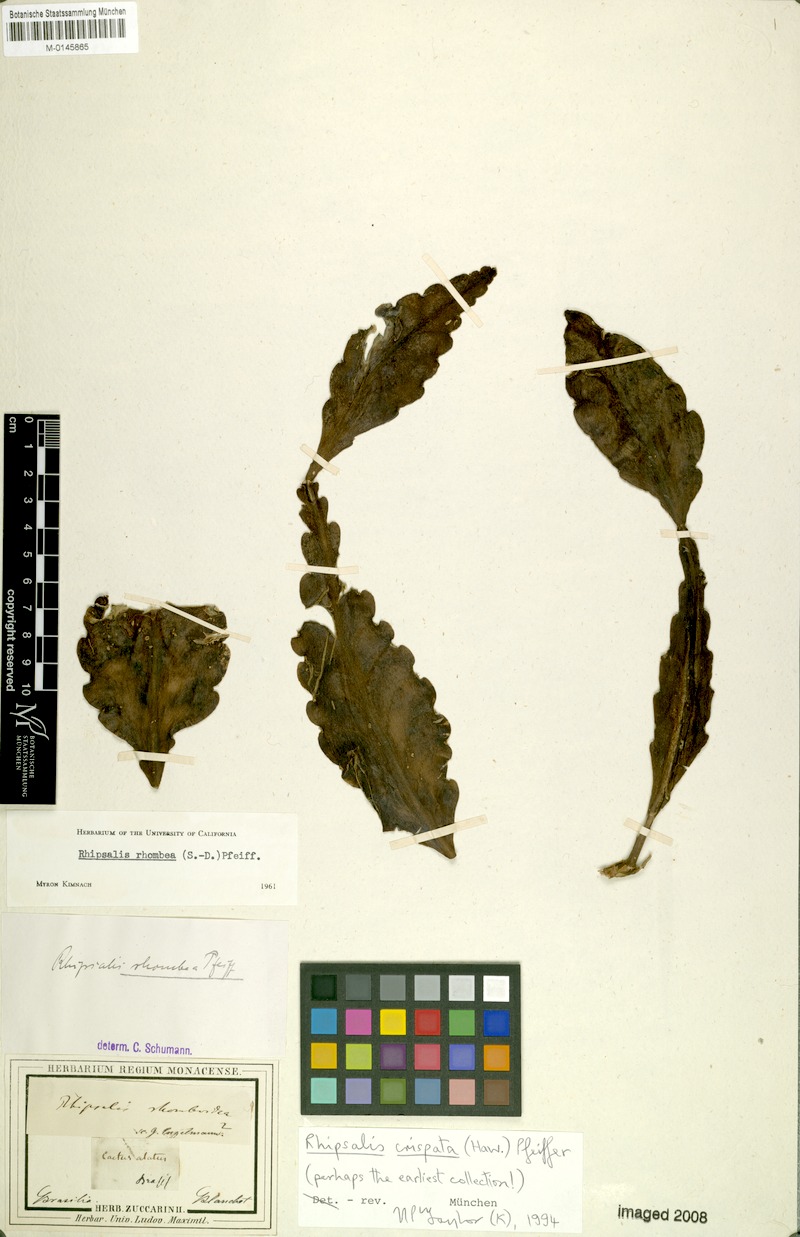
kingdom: Plantae
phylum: Tracheophyta
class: Magnoliopsida
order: Caryophyllales
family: Cactaceae
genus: Rhipsalis
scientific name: Rhipsalis crispata
